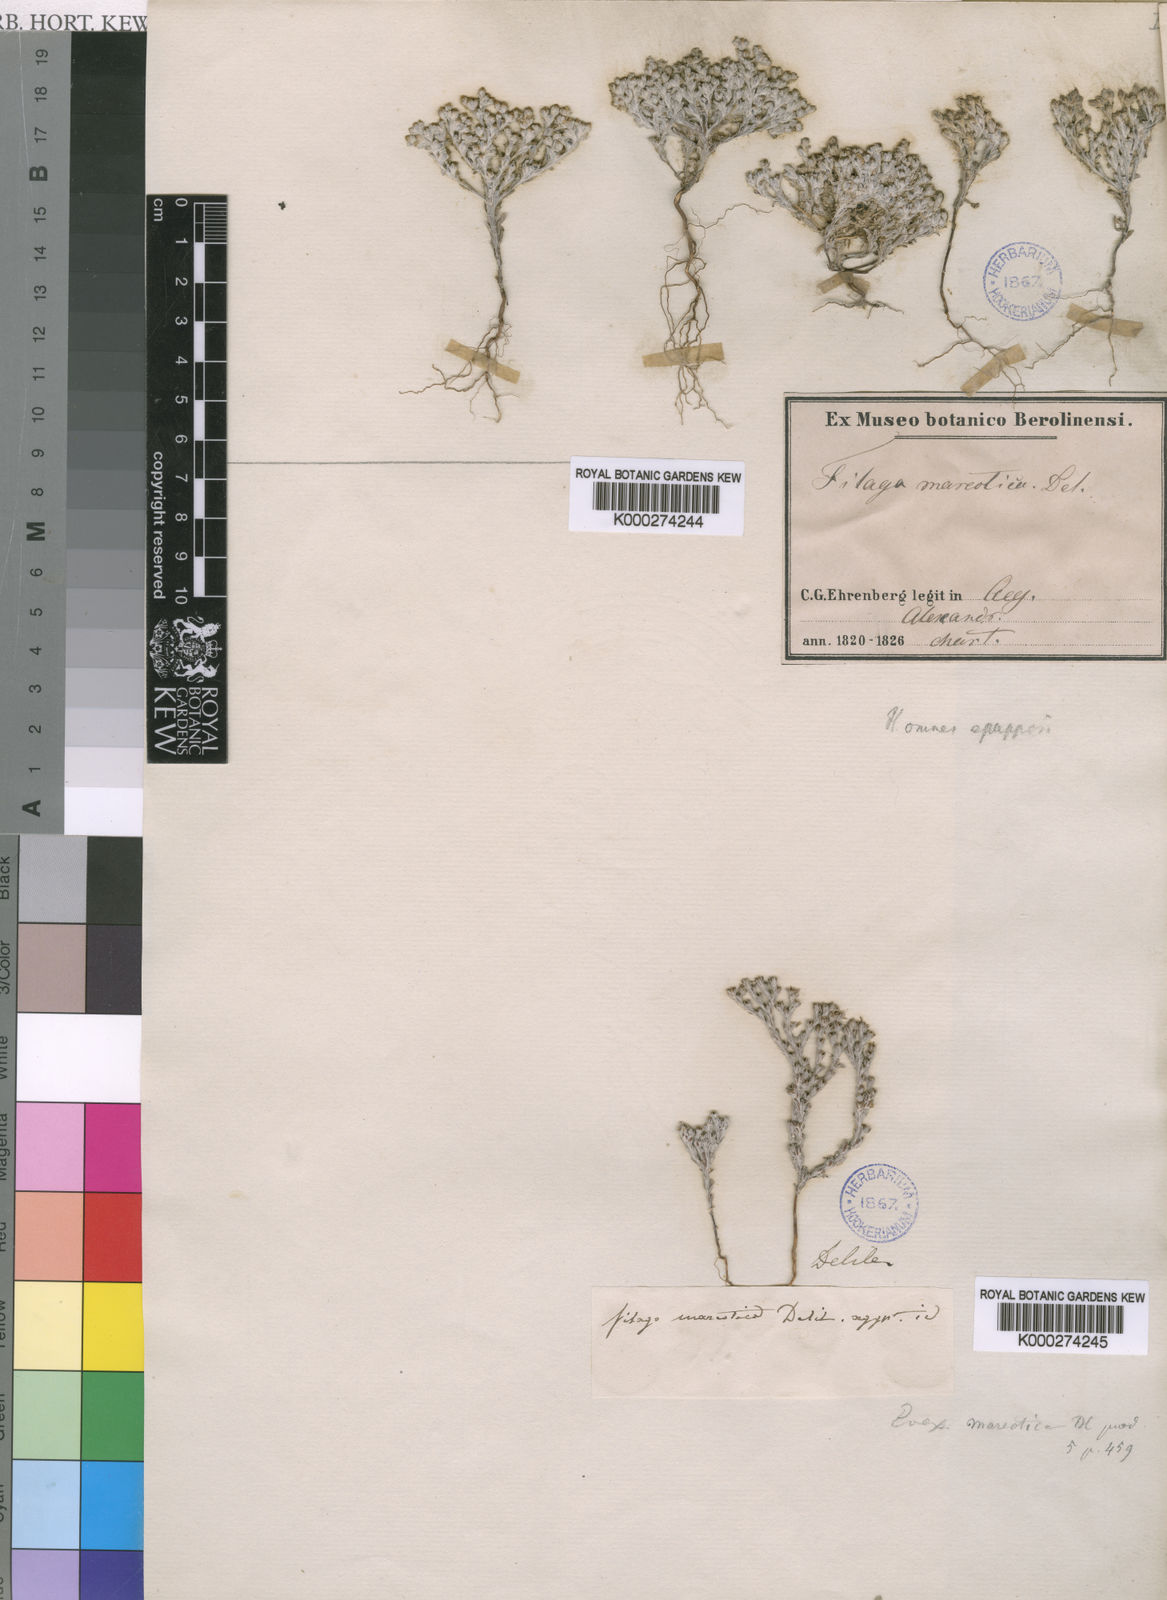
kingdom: Plantae
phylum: Tracheophyta
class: Magnoliopsida
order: Asterales
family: Asteraceae
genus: Filago
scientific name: Filago mareotica
